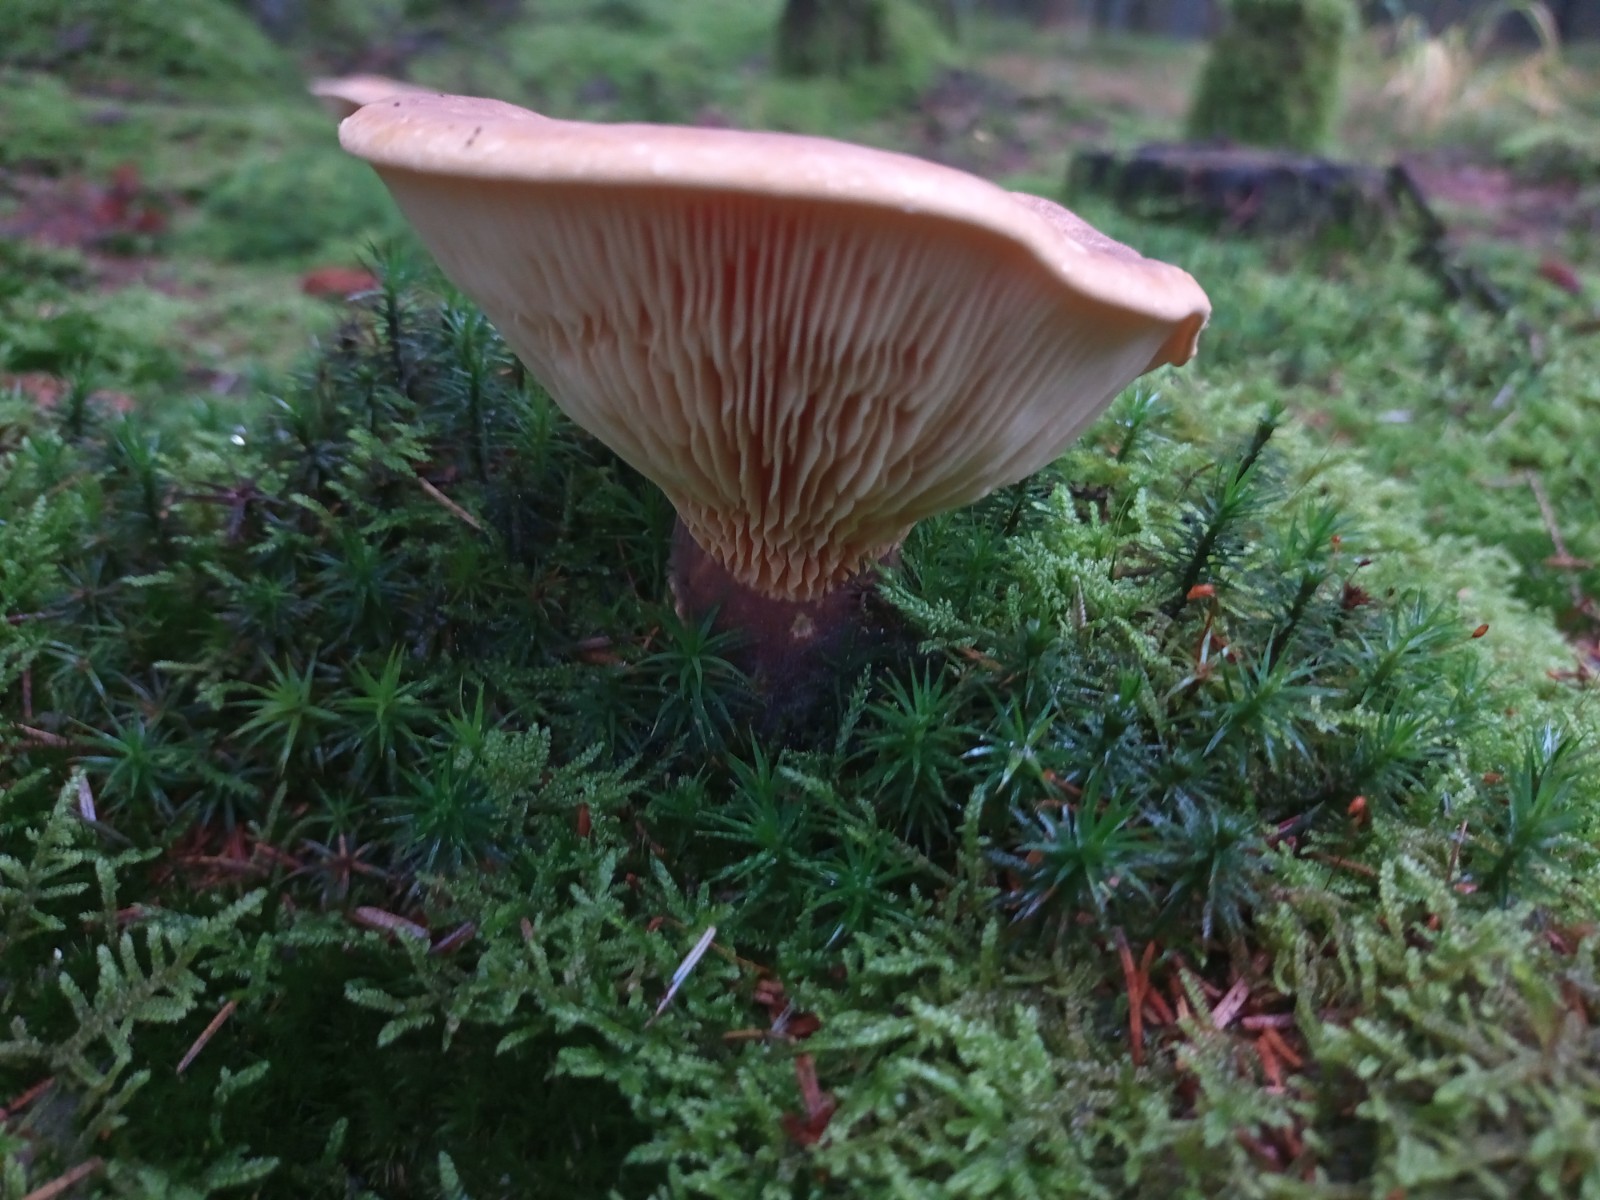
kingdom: Fungi
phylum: Basidiomycota
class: Agaricomycetes
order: Boletales
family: Tapinellaceae
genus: Tapinella
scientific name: Tapinella atrotomentosa
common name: sortfiltet viftesvamp
